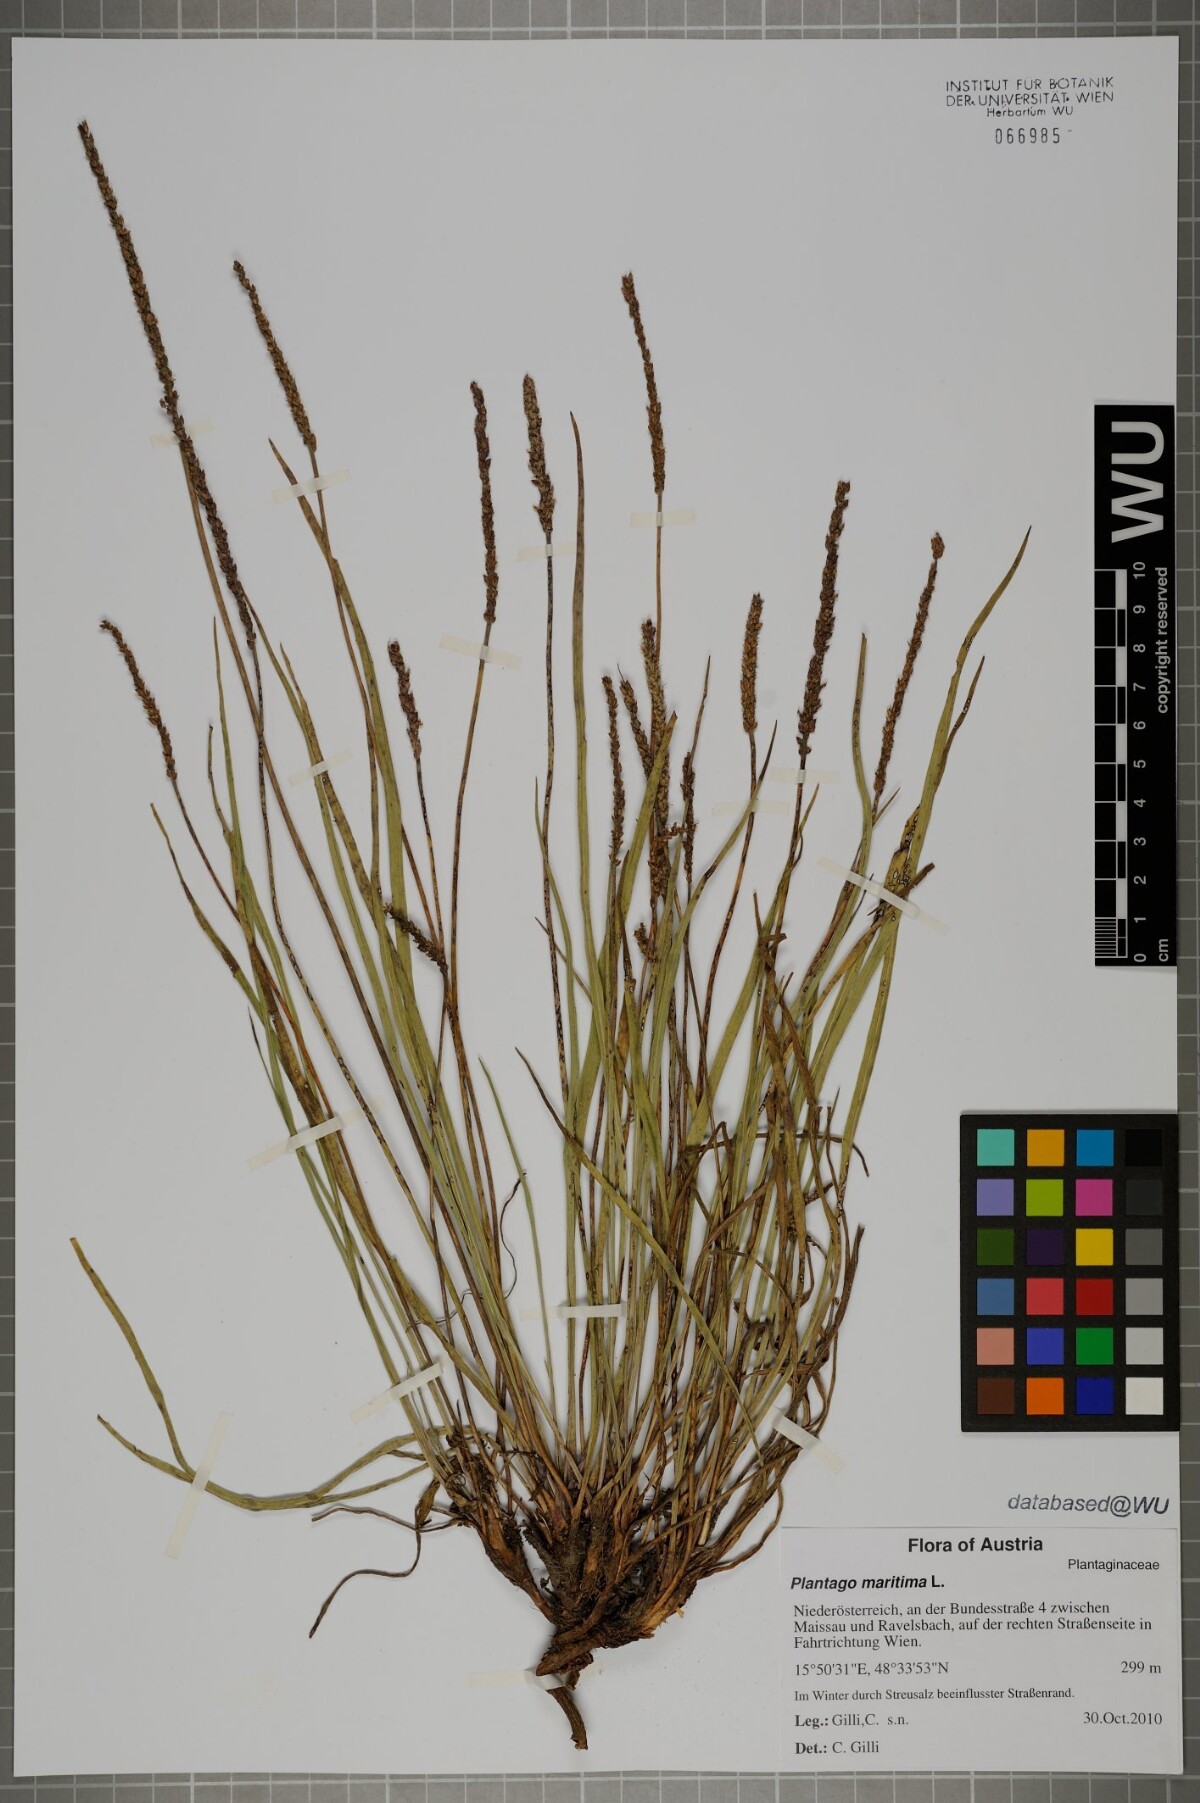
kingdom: Plantae
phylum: Tracheophyta
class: Magnoliopsida
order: Lamiales
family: Plantaginaceae
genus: Plantago
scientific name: Plantago maritima
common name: Sea plantain
